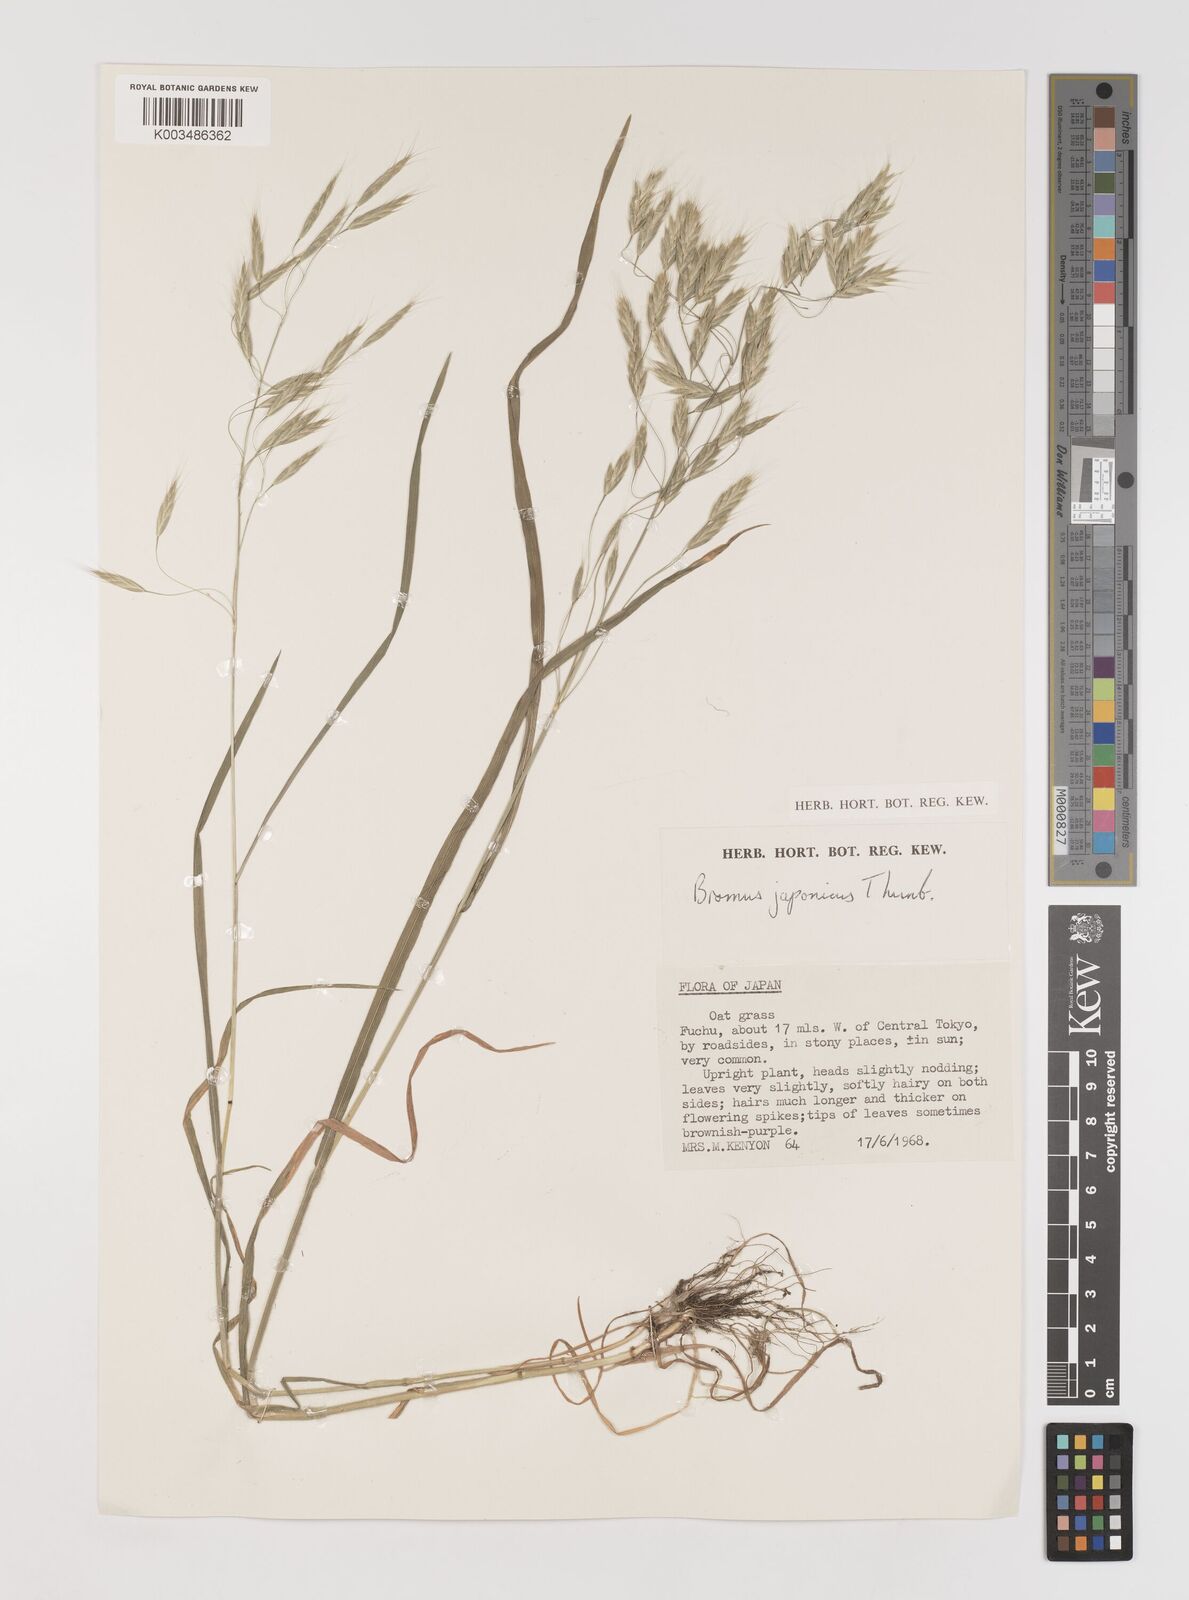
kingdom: Plantae
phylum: Tracheophyta
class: Liliopsida
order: Poales
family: Poaceae
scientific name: Poaceae
